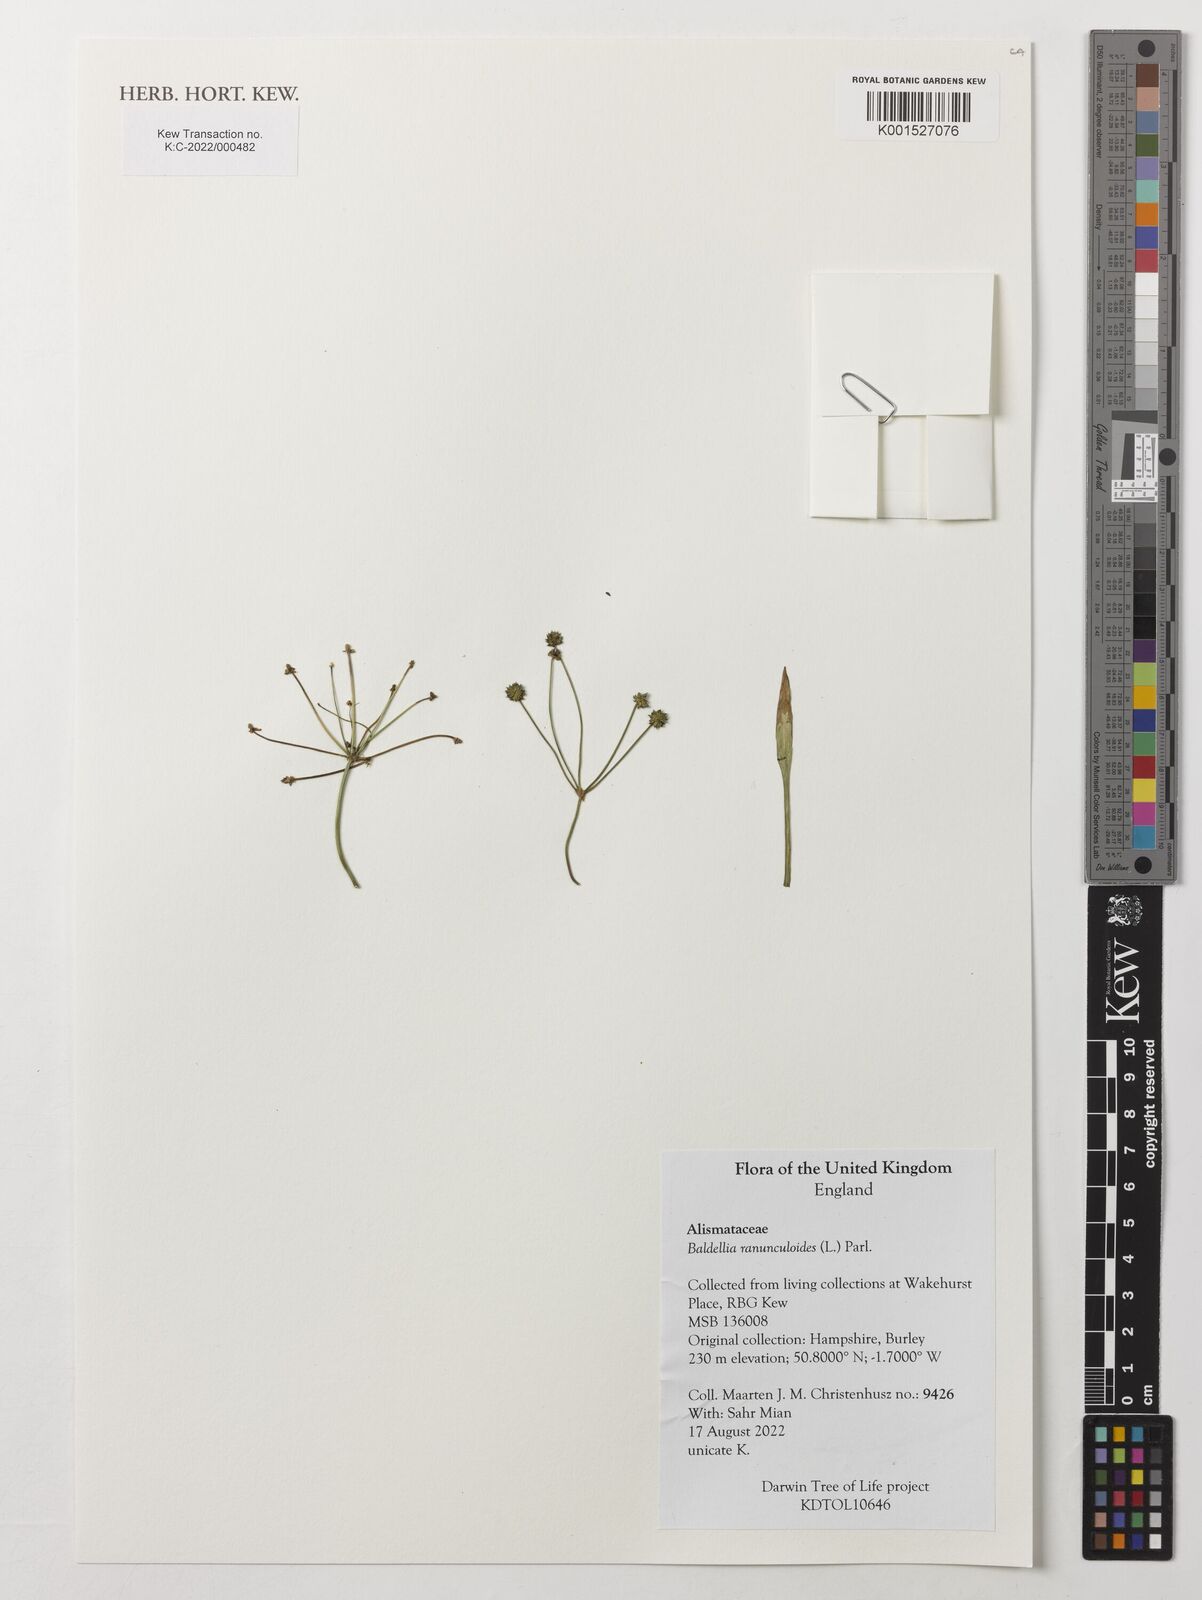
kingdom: Plantae
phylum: Tracheophyta
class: Liliopsida
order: Alismatales
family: Alismataceae
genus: Baldellia
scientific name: Baldellia ranunculoides
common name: Lesser water-plantain
